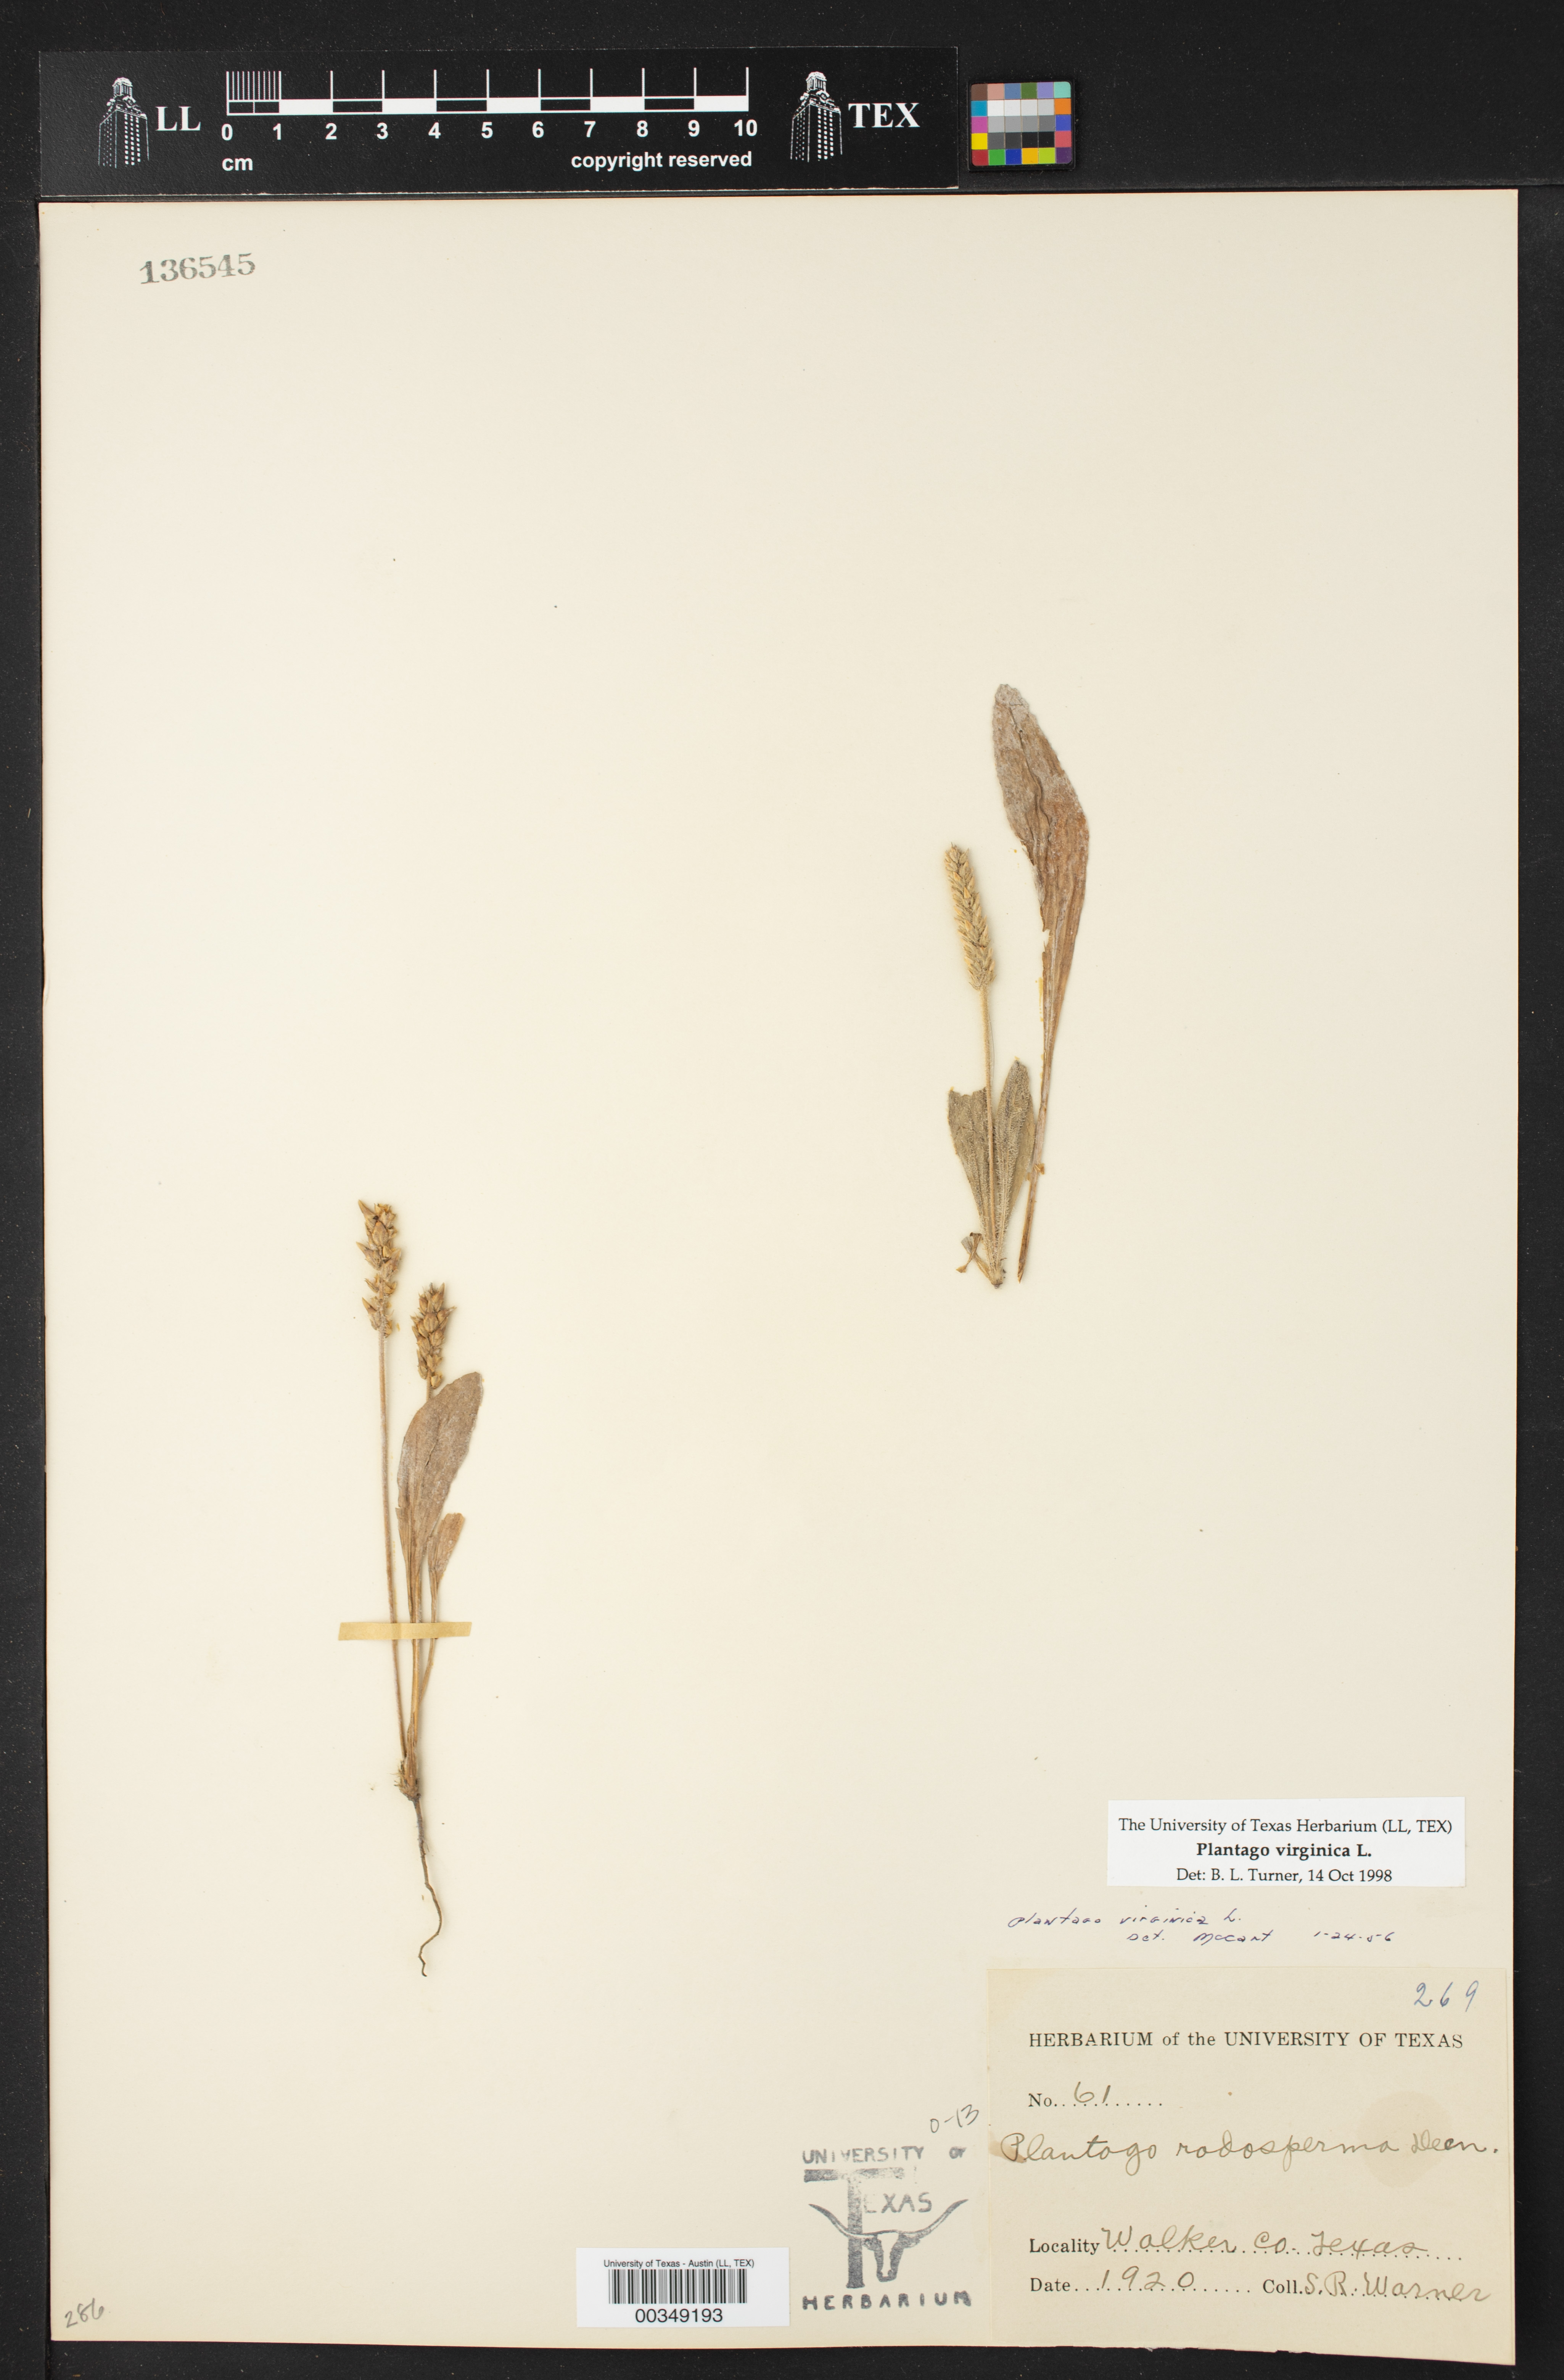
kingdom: Plantae
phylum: Tracheophyta
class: Magnoliopsida
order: Lamiales
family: Plantaginaceae
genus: Plantago
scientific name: Plantago virginica
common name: Hoary plantain
